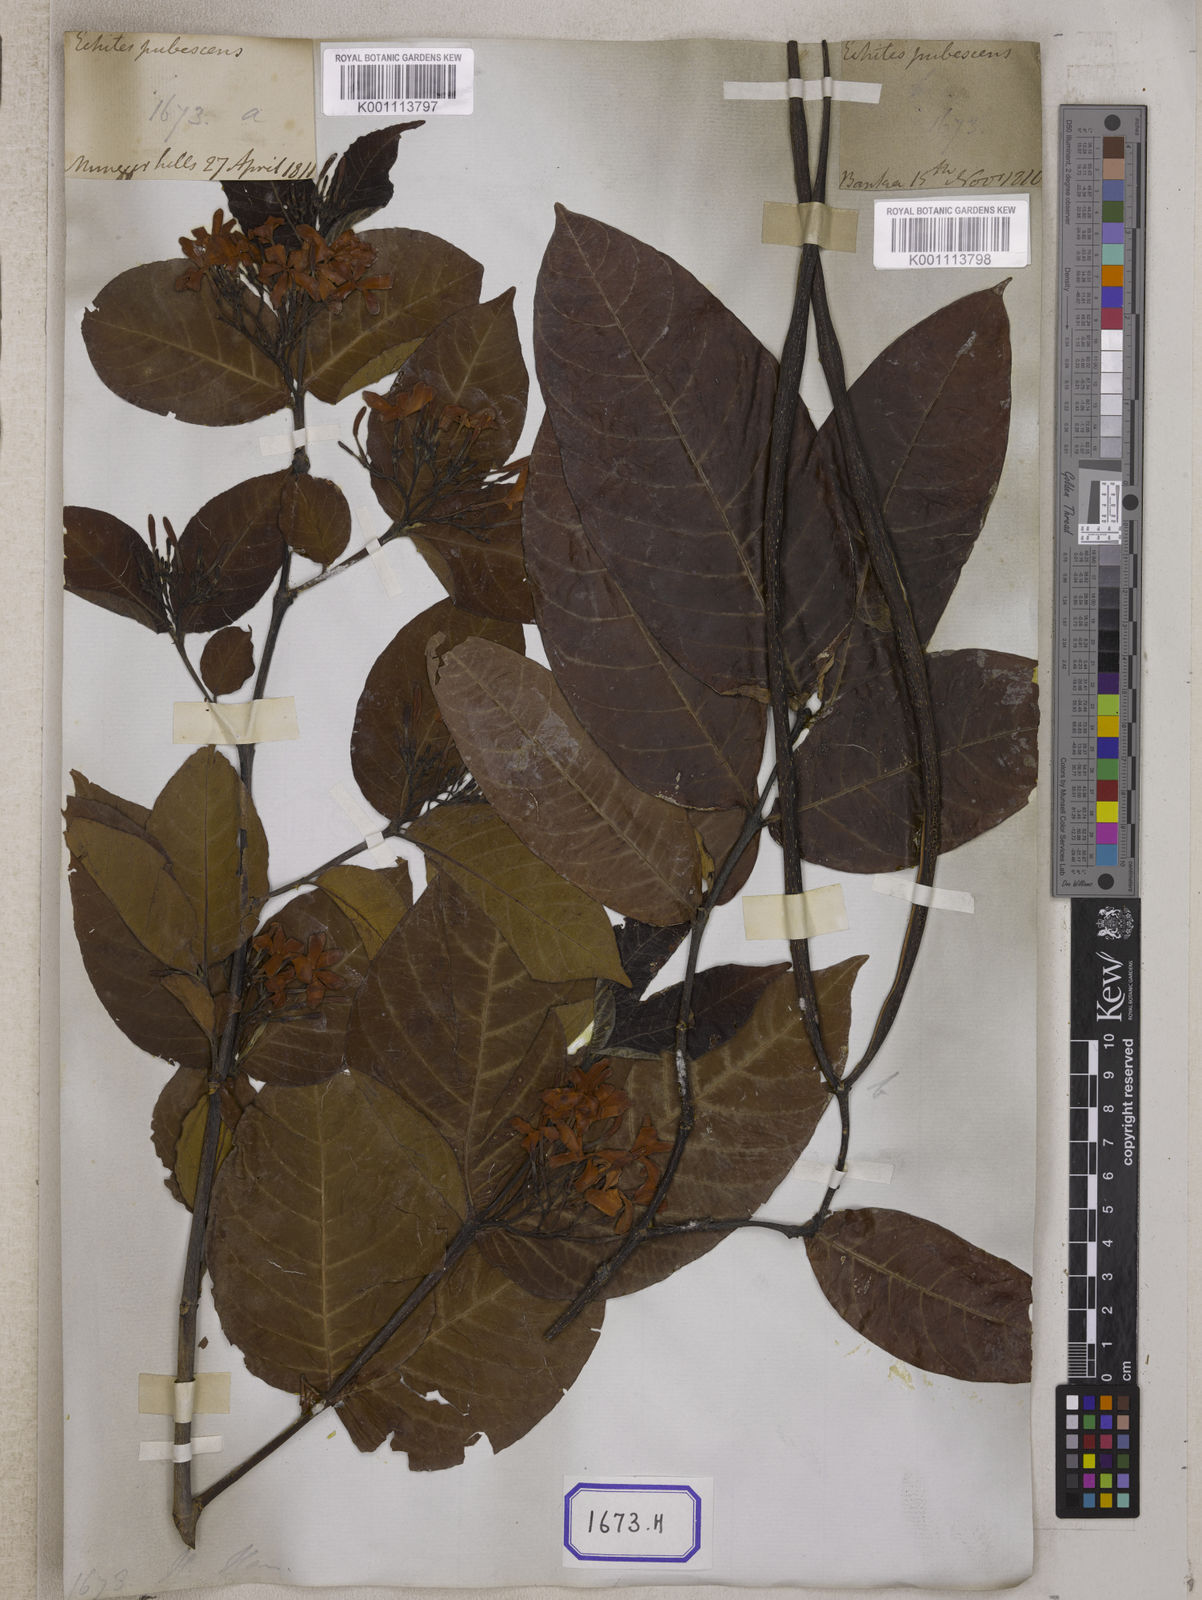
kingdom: Plantae
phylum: Tracheophyta
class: Magnoliopsida
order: Gentianales
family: Apocynaceae
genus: Holarrhena
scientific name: Holarrhena
